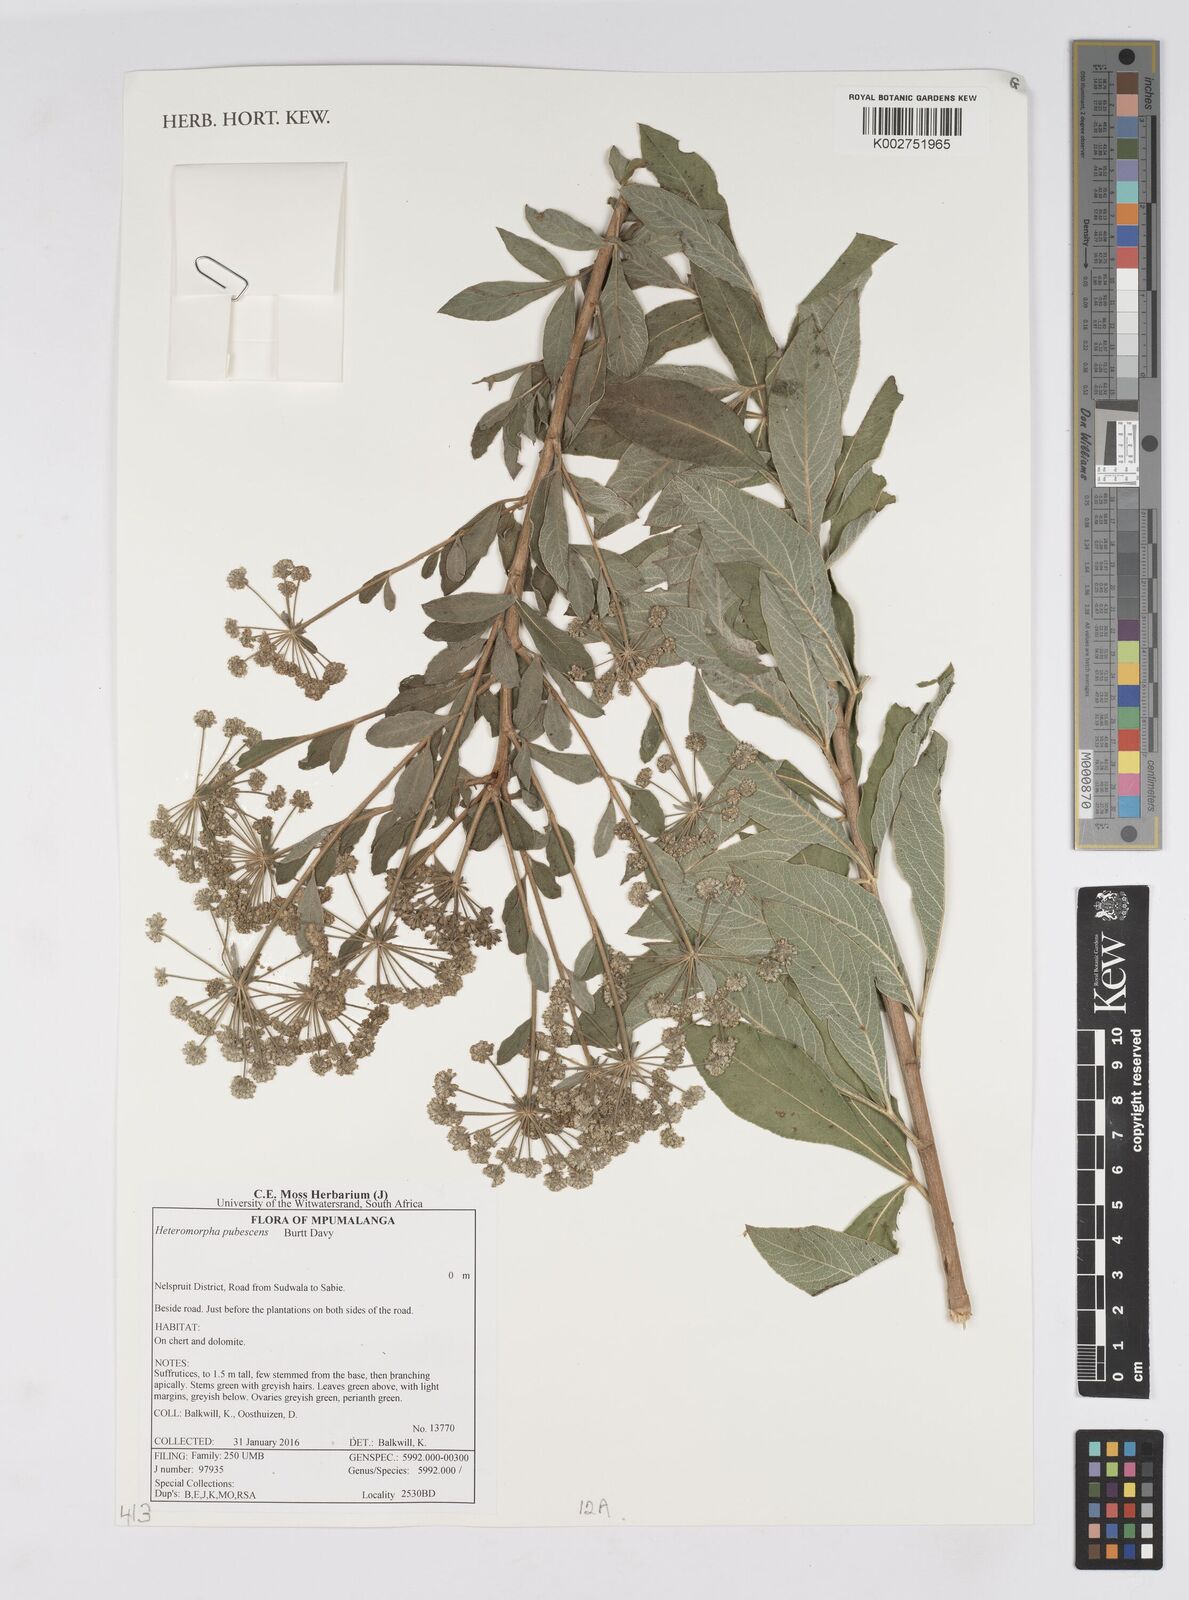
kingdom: Plantae
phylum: Tracheophyta
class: Magnoliopsida
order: Apiales
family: Apiaceae
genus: Heteromorpha
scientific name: Heteromorpha pubescens
